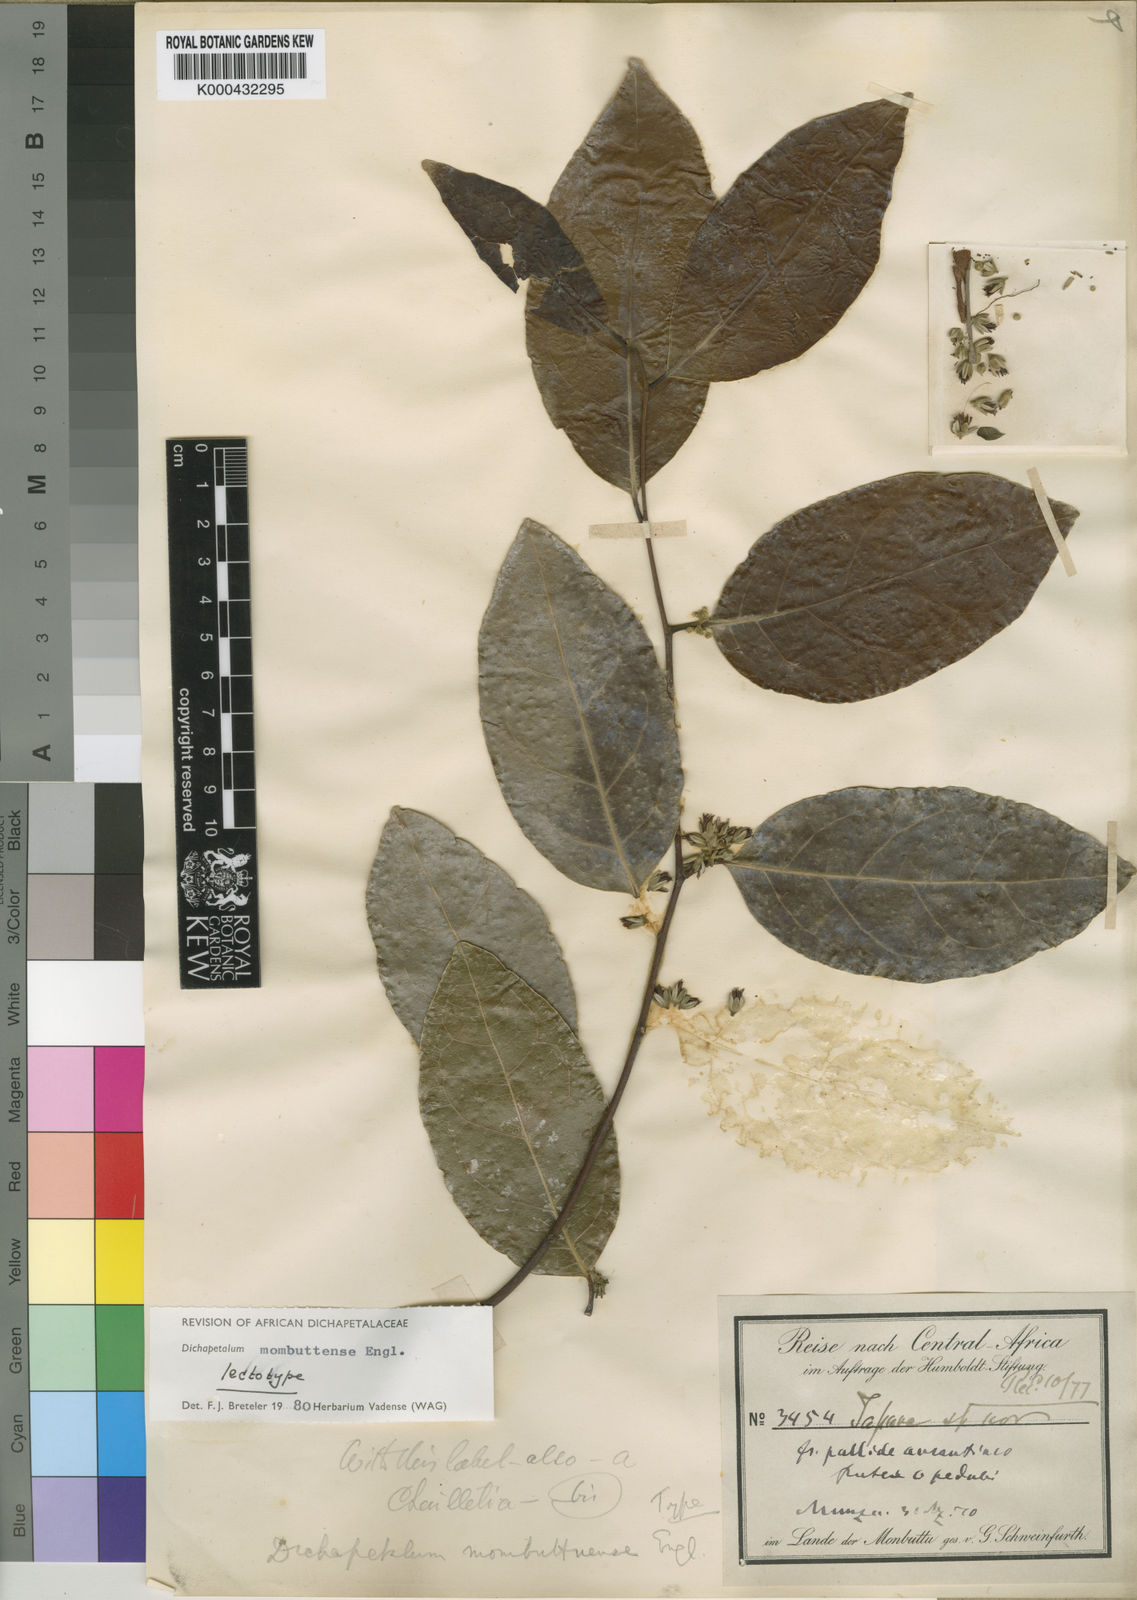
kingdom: Plantae
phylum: Tracheophyta
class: Magnoliopsida
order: Malpighiales
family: Dichapetalaceae
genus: Dichapetalum
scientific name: Dichapetalum mombuttense
